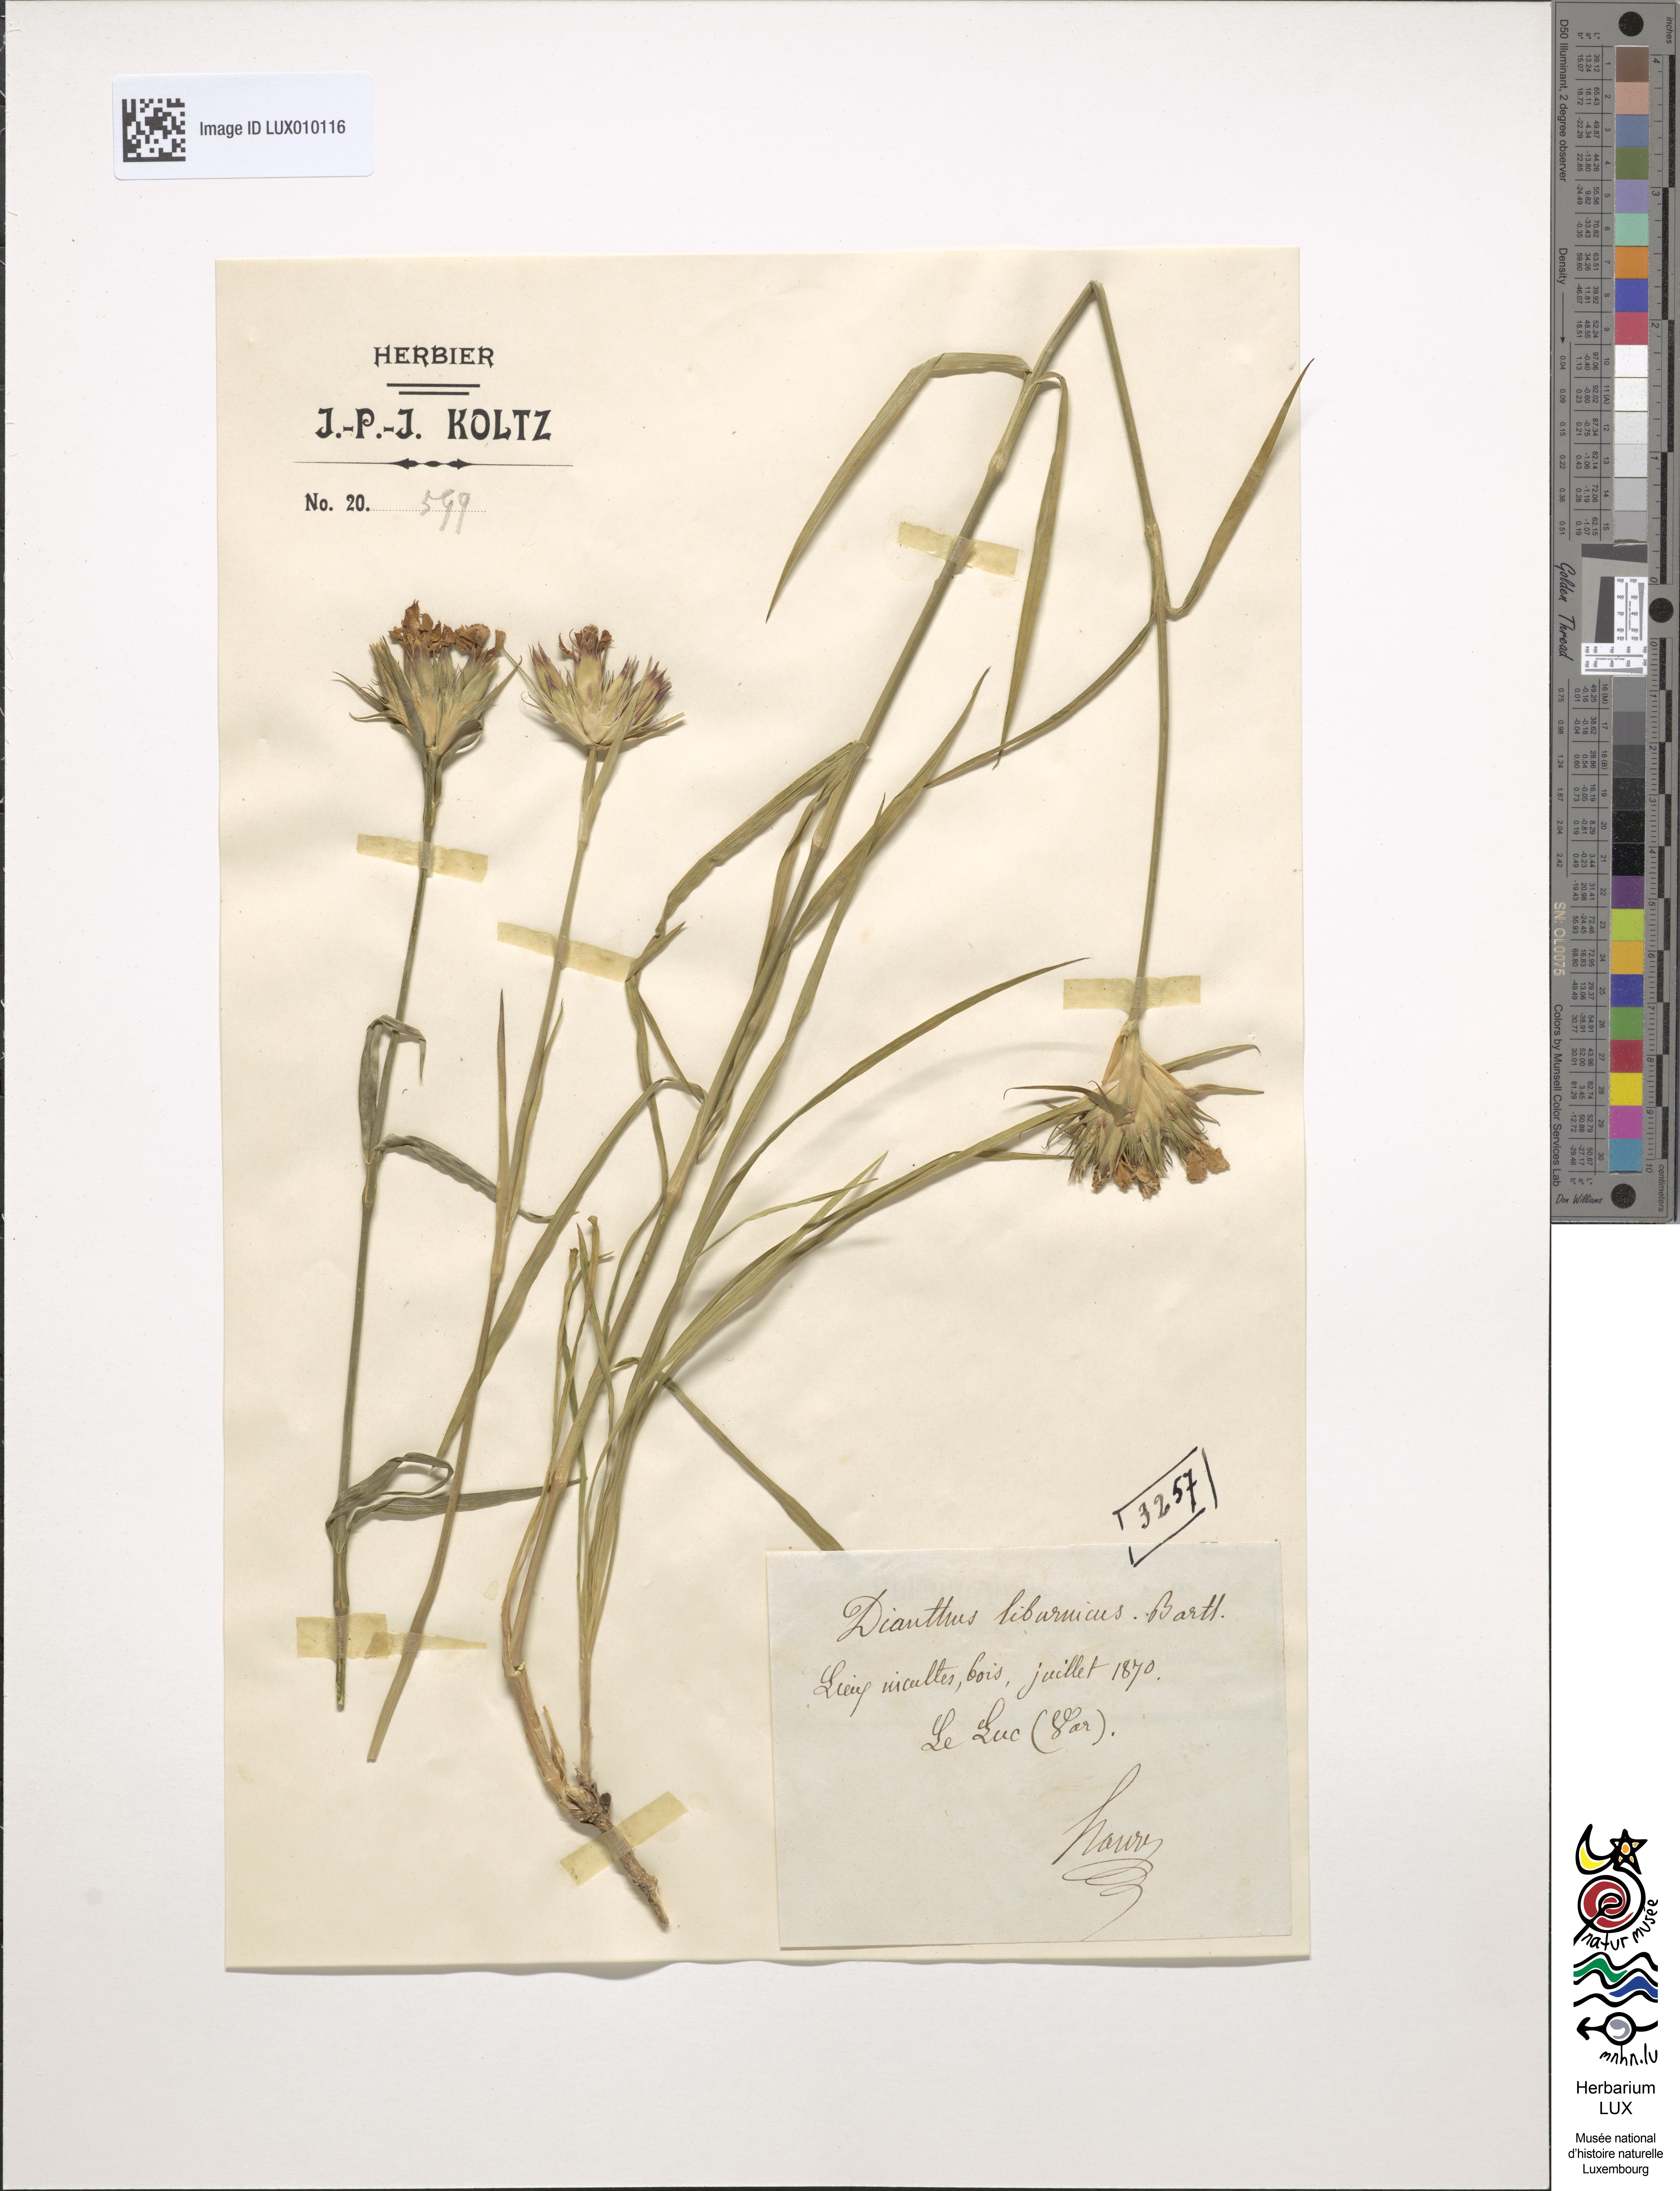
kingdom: Plantae
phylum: Tracheophyta
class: Magnoliopsida
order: Caryophyllales
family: Caryophyllaceae
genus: Dianthus
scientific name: Dianthus balbisii
